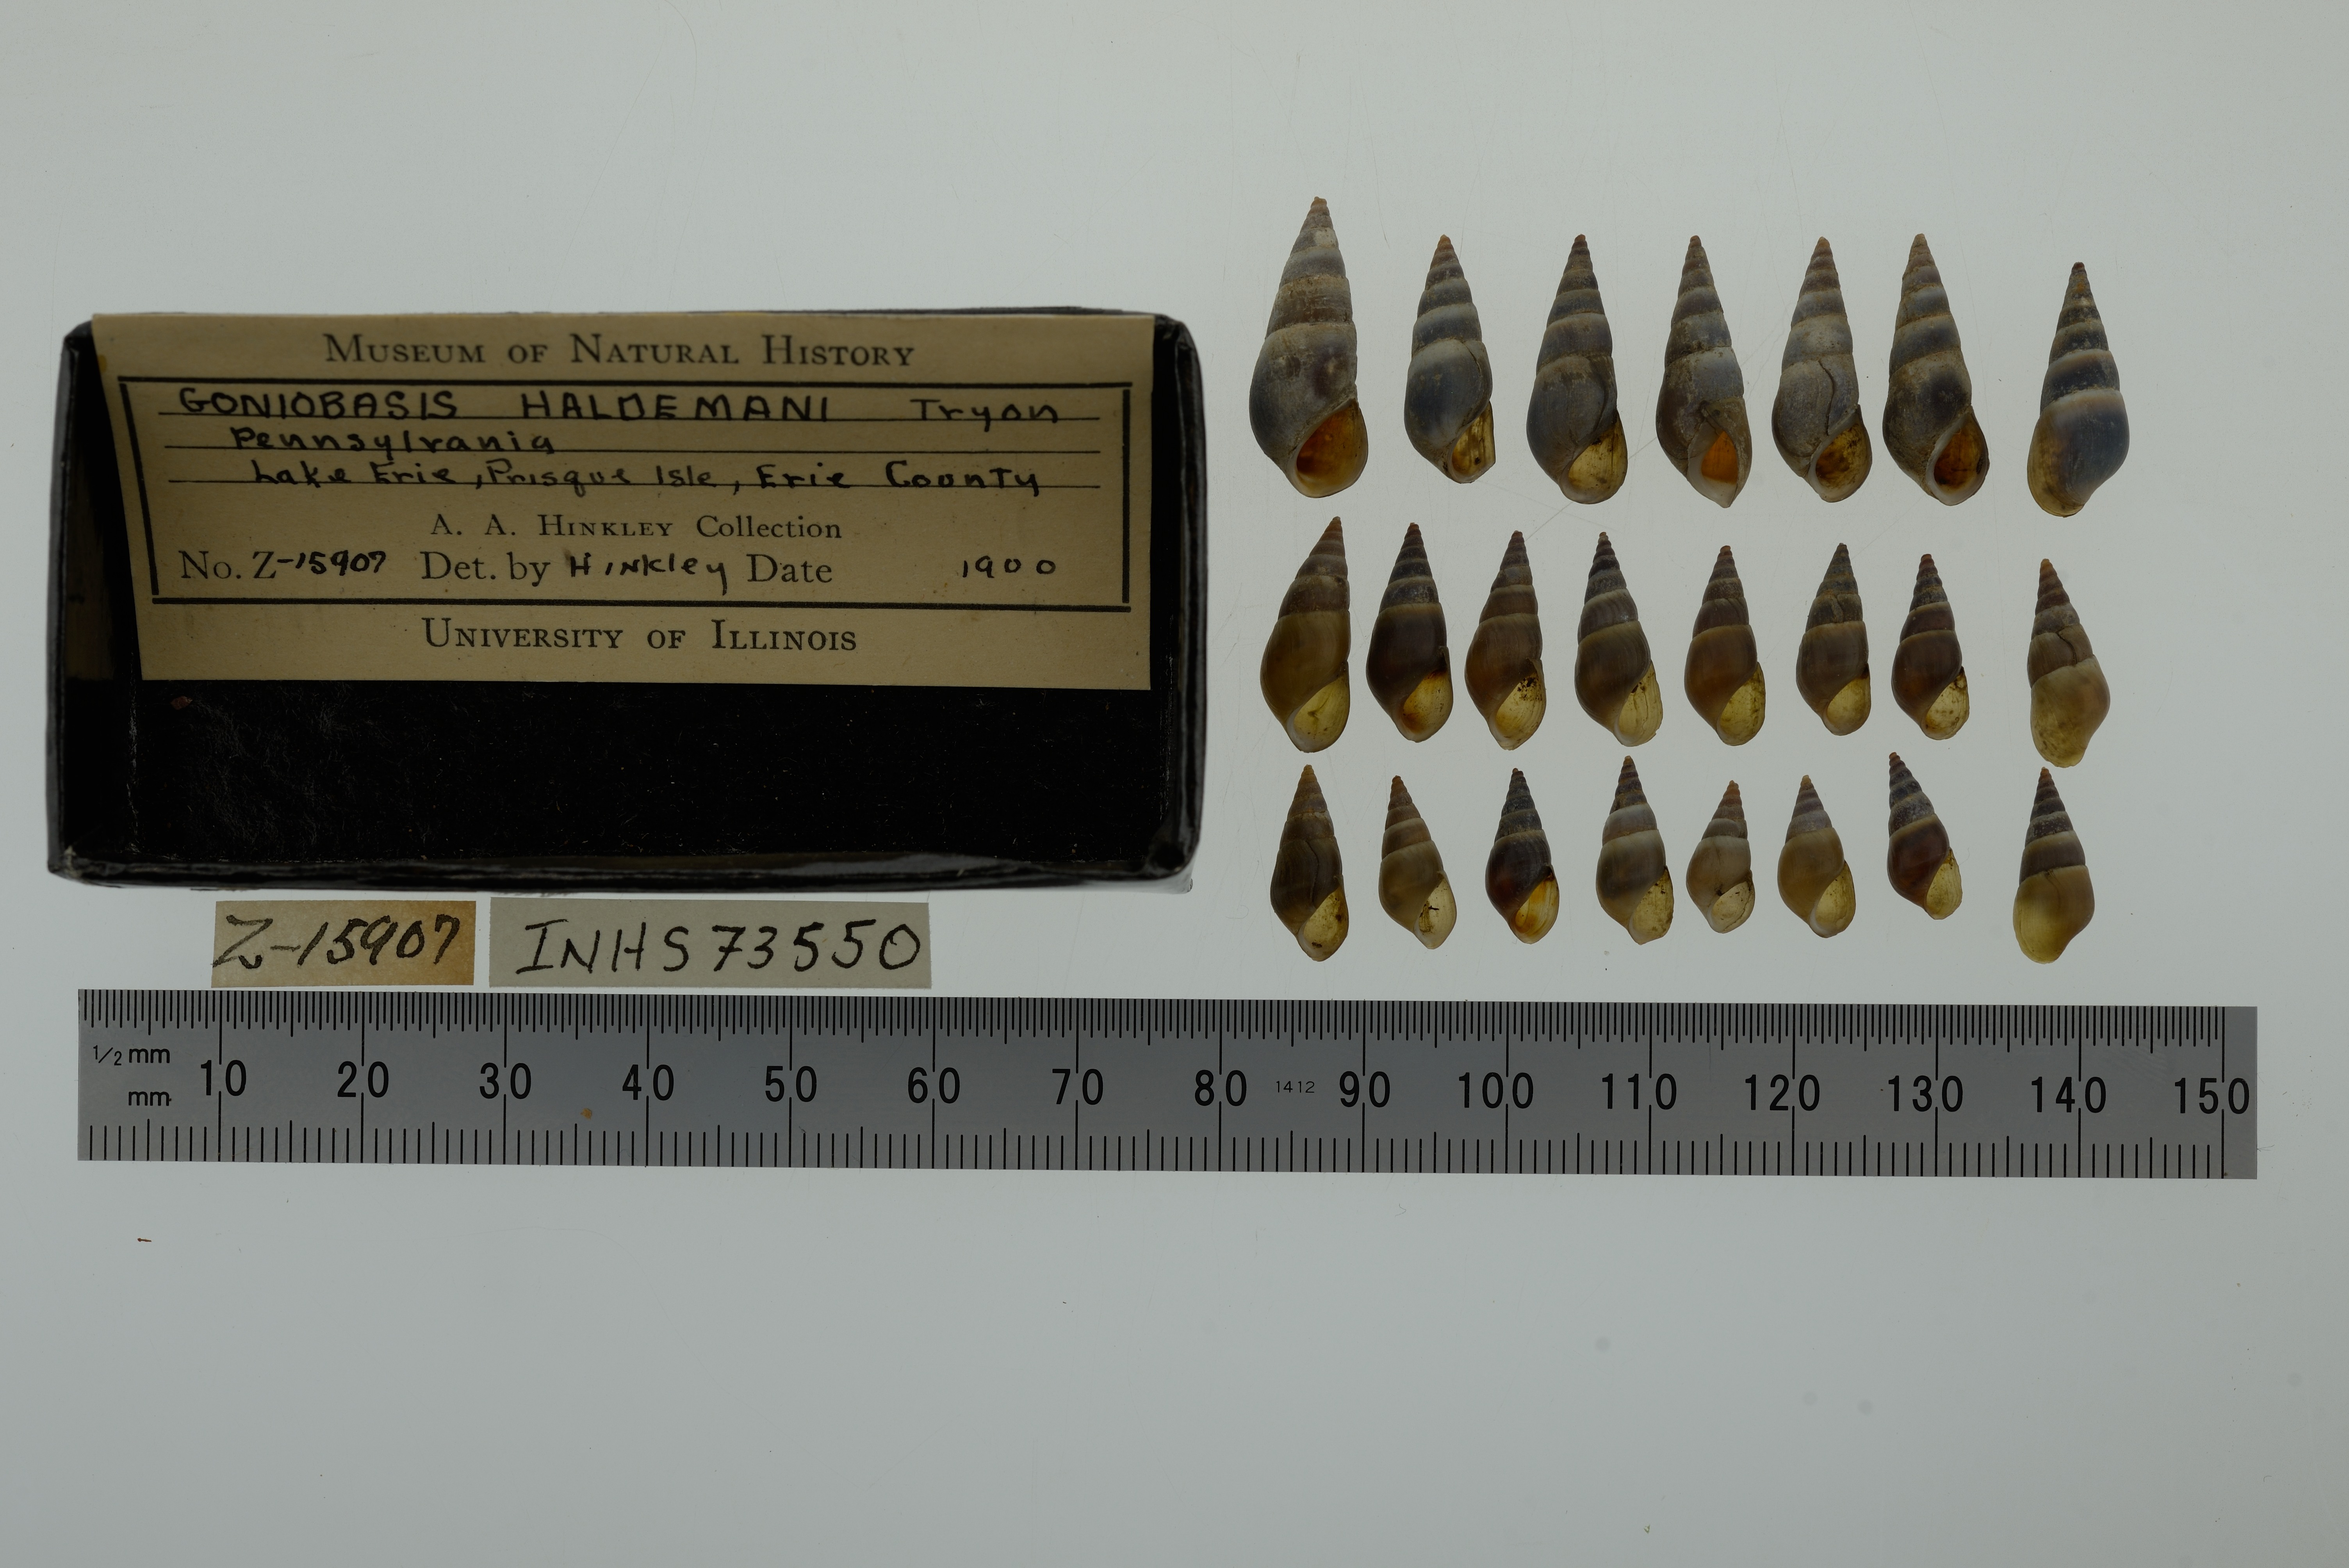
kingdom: Animalia
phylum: Mollusca
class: Gastropoda
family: Pleuroceridae
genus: Elimia
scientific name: Elimia livescens
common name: Liver elimia
